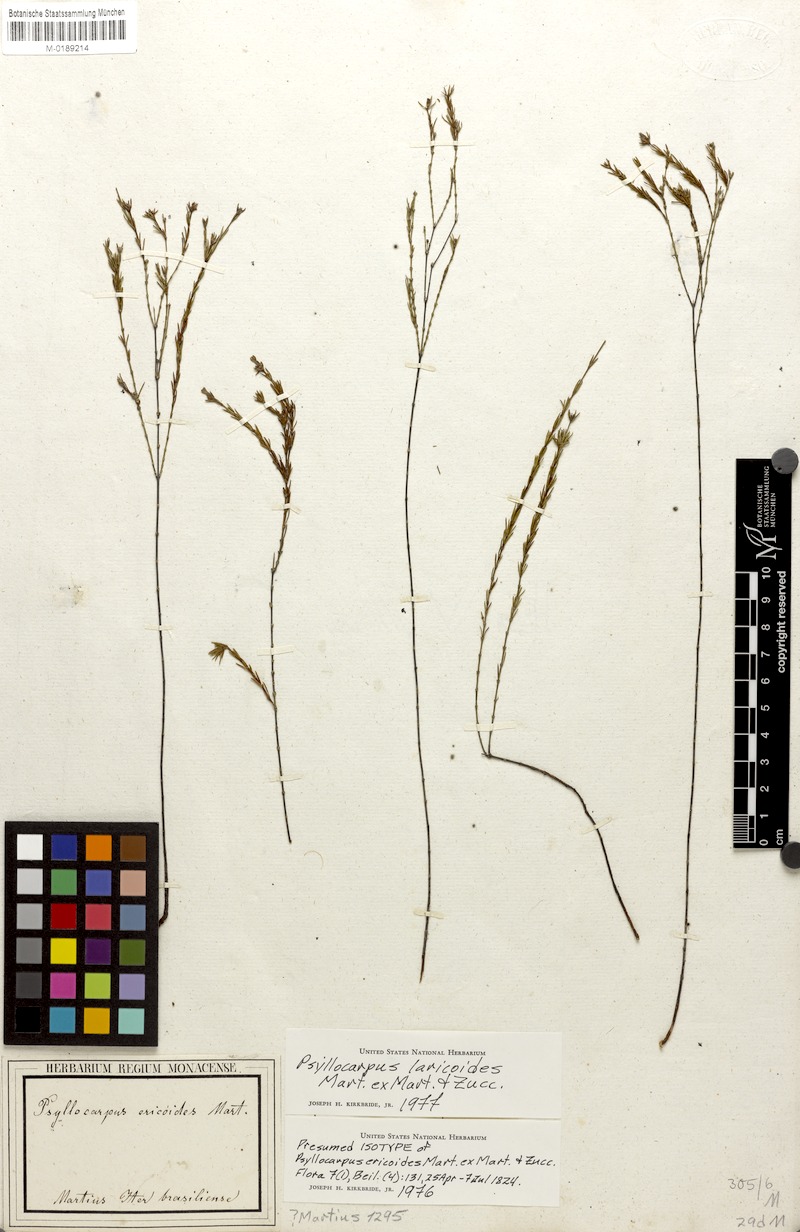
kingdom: Plantae
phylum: Tracheophyta
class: Magnoliopsida
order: Gentianales
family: Rubiaceae
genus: Psyllocarpus
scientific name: Psyllocarpus laricoides
